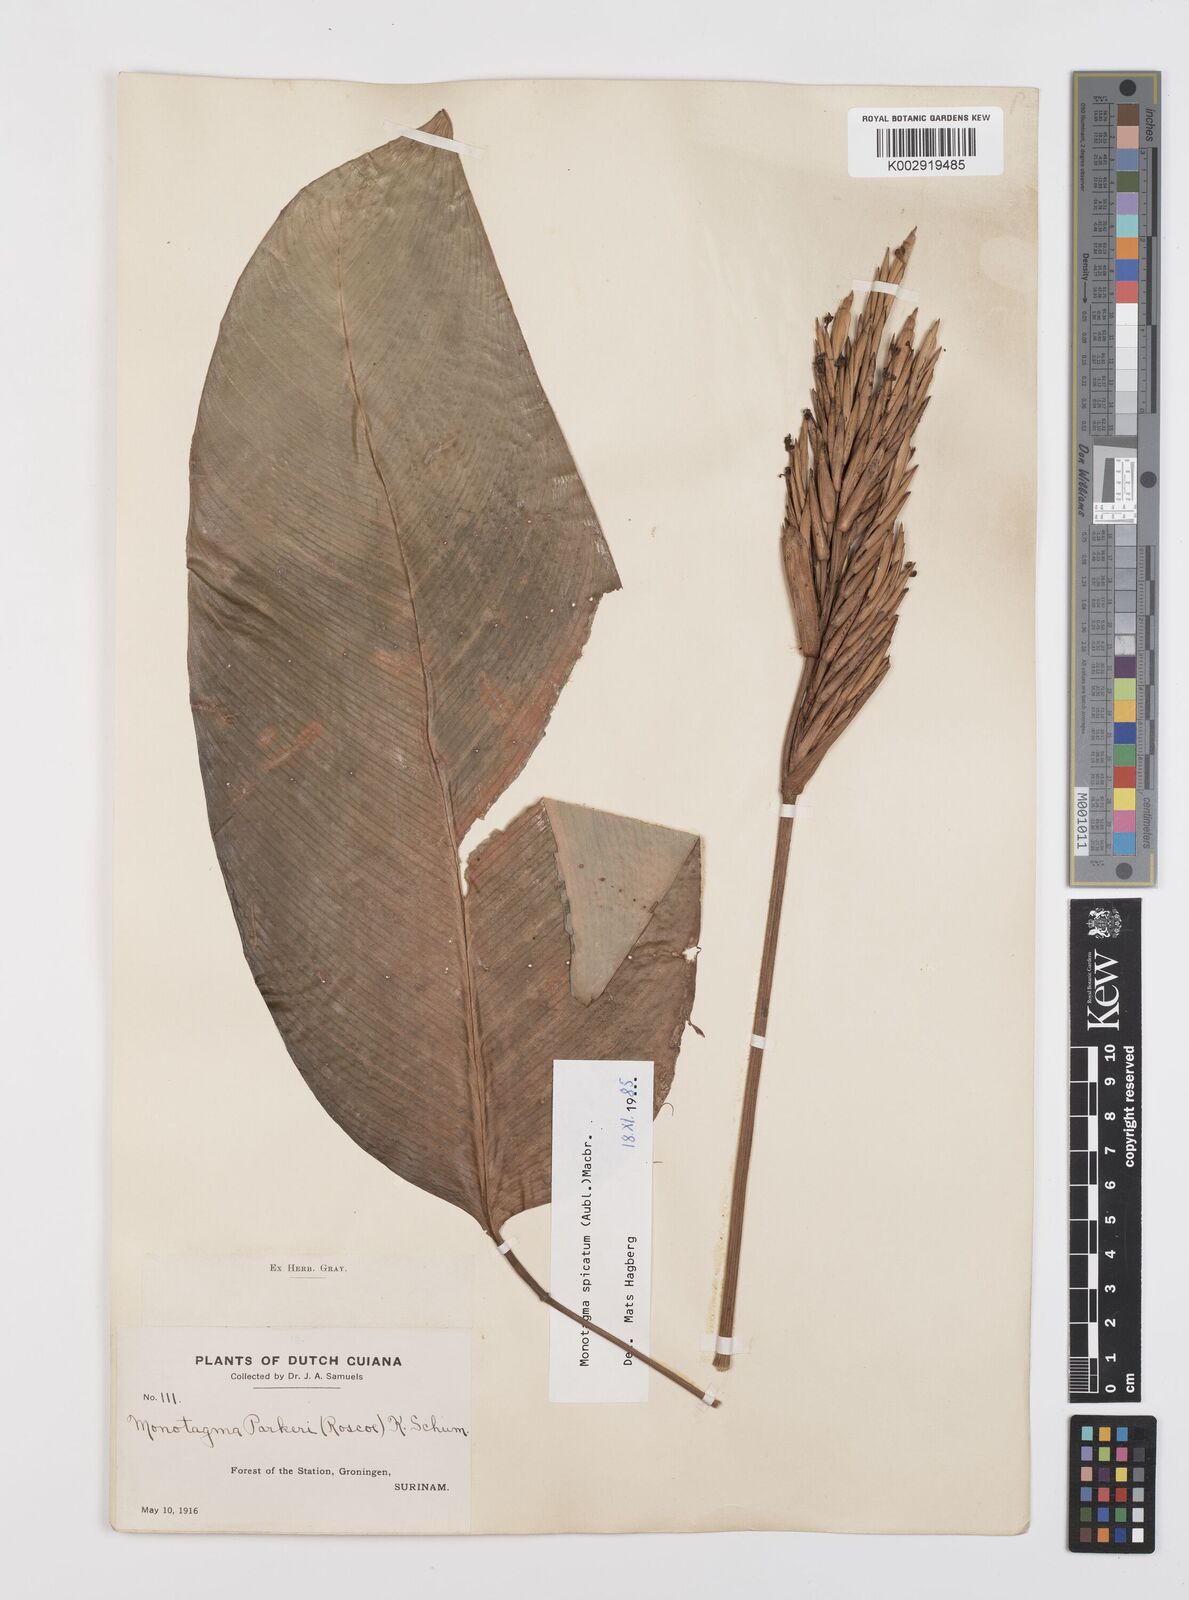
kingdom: Plantae
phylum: Tracheophyta
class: Liliopsida
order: Zingiberales
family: Marantaceae
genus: Monotagma
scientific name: Monotagma spicatum
